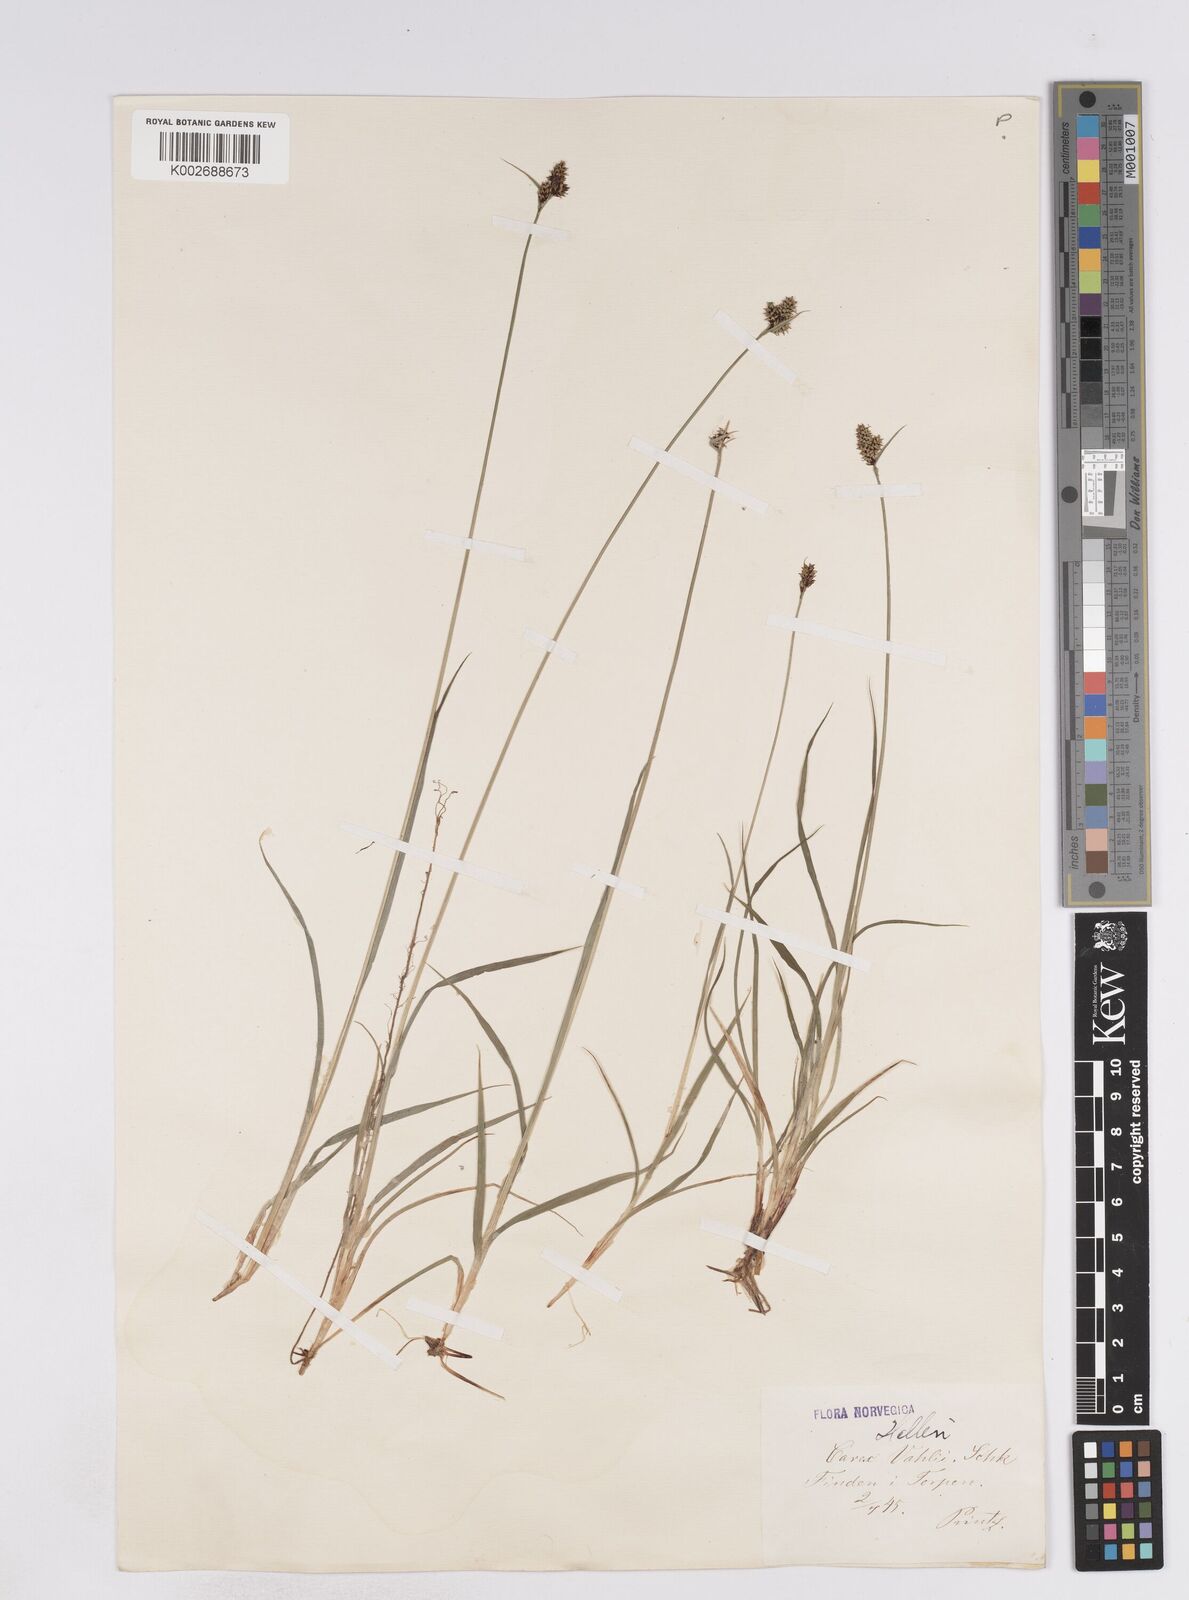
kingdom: Plantae
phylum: Tracheophyta
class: Liliopsida
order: Poales
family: Cyperaceae
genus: Carex
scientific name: Carex media
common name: Alpine sedge
